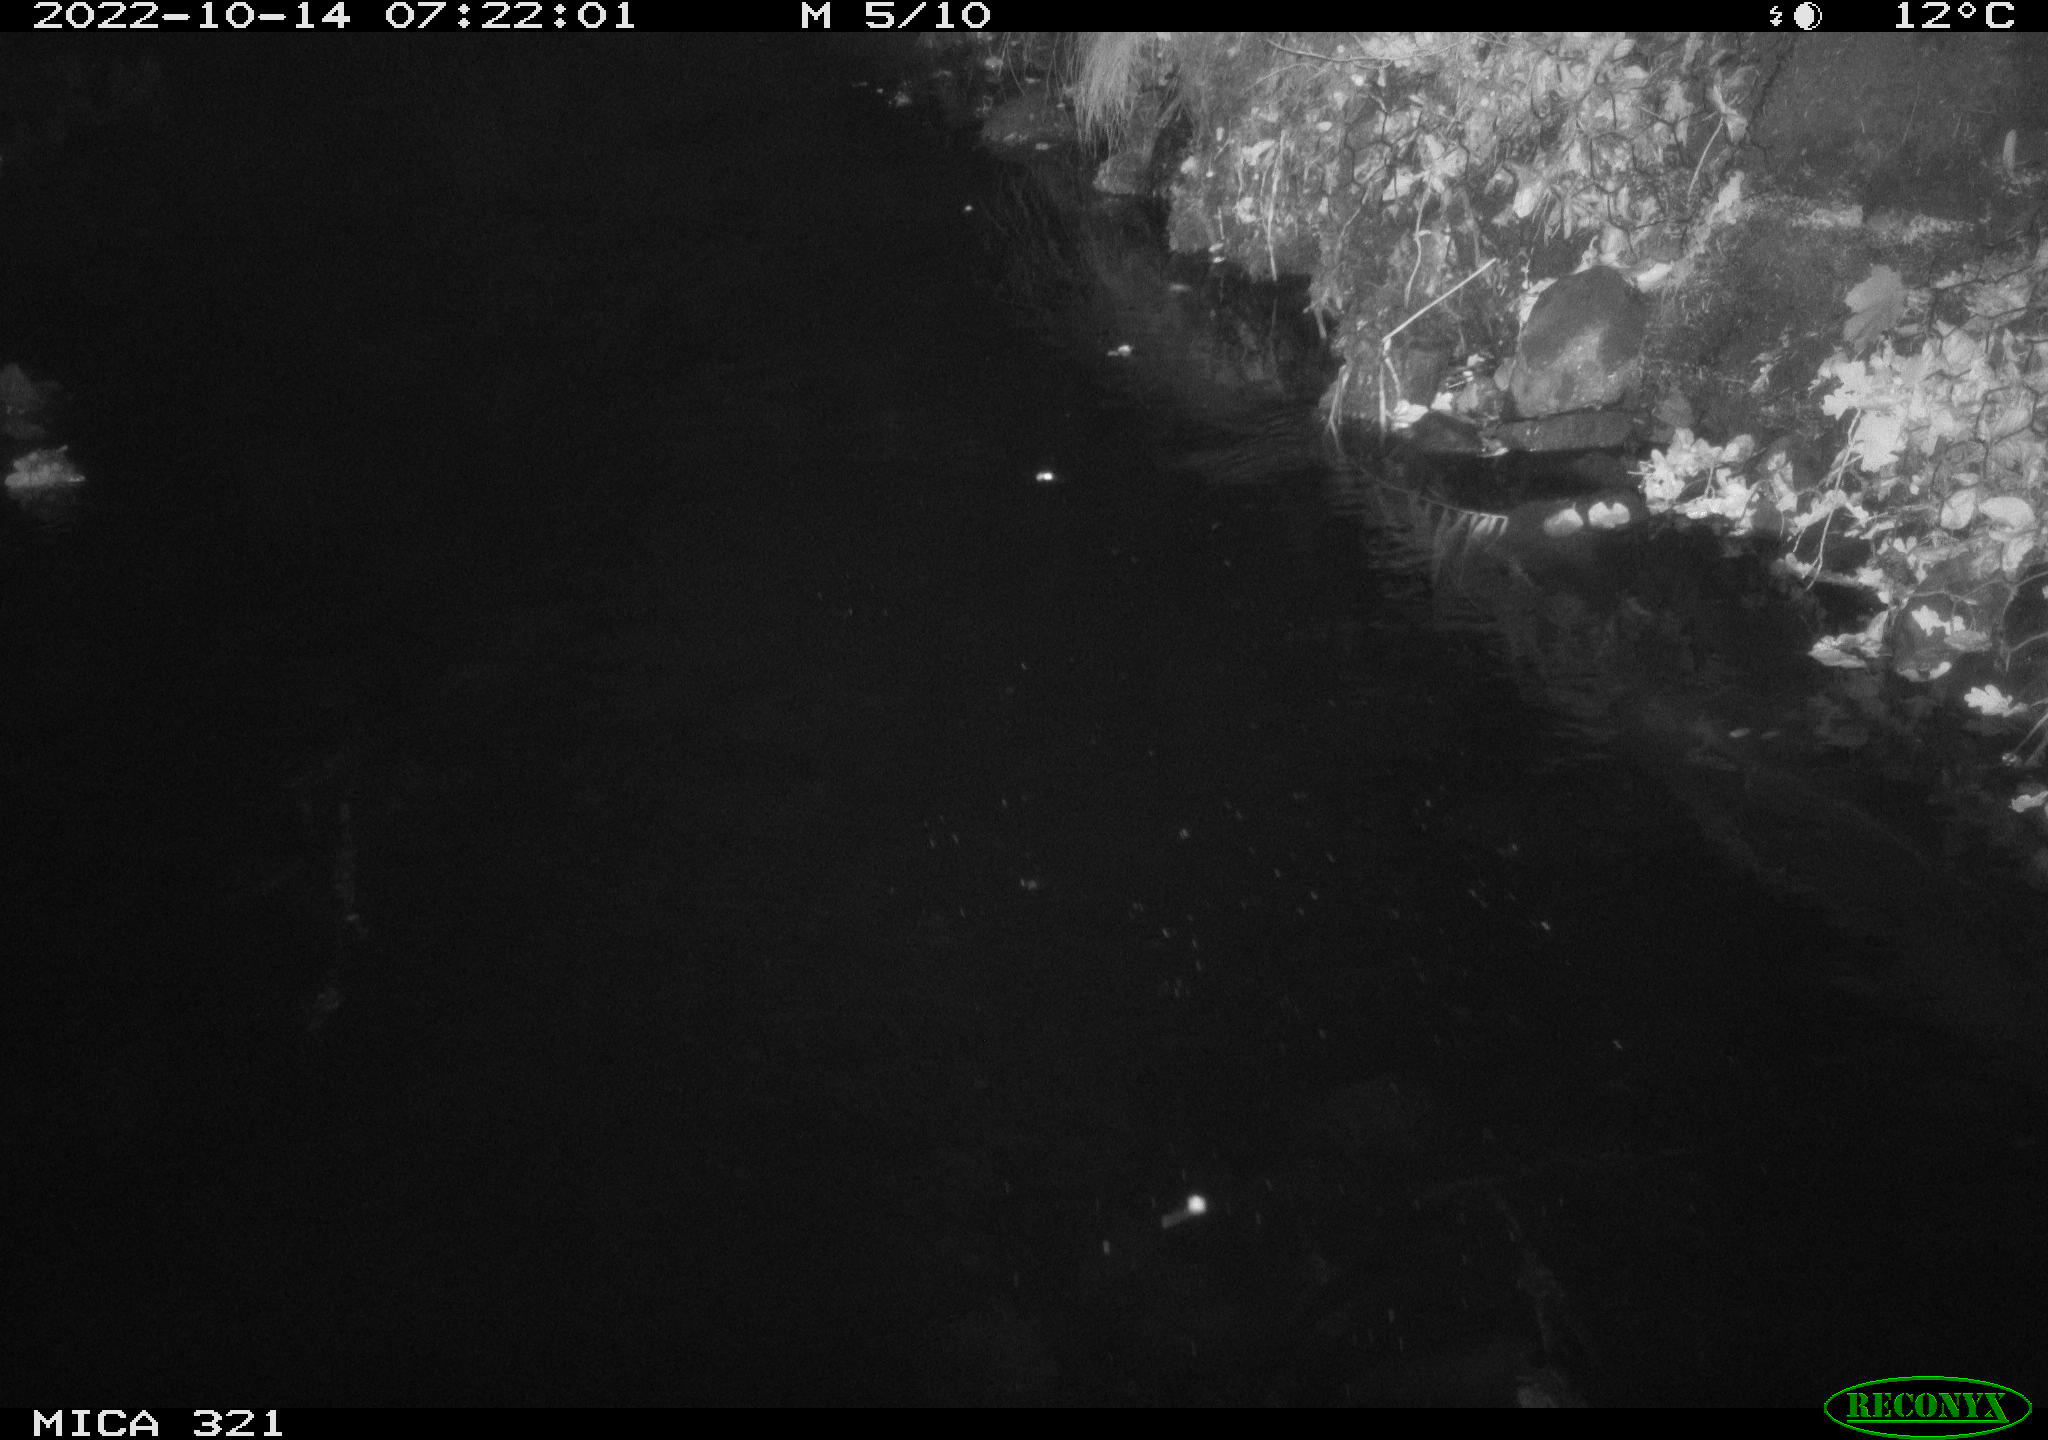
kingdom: Animalia
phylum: Chordata
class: Aves
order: Anseriformes
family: Anatidae
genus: Anas
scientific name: Anas
